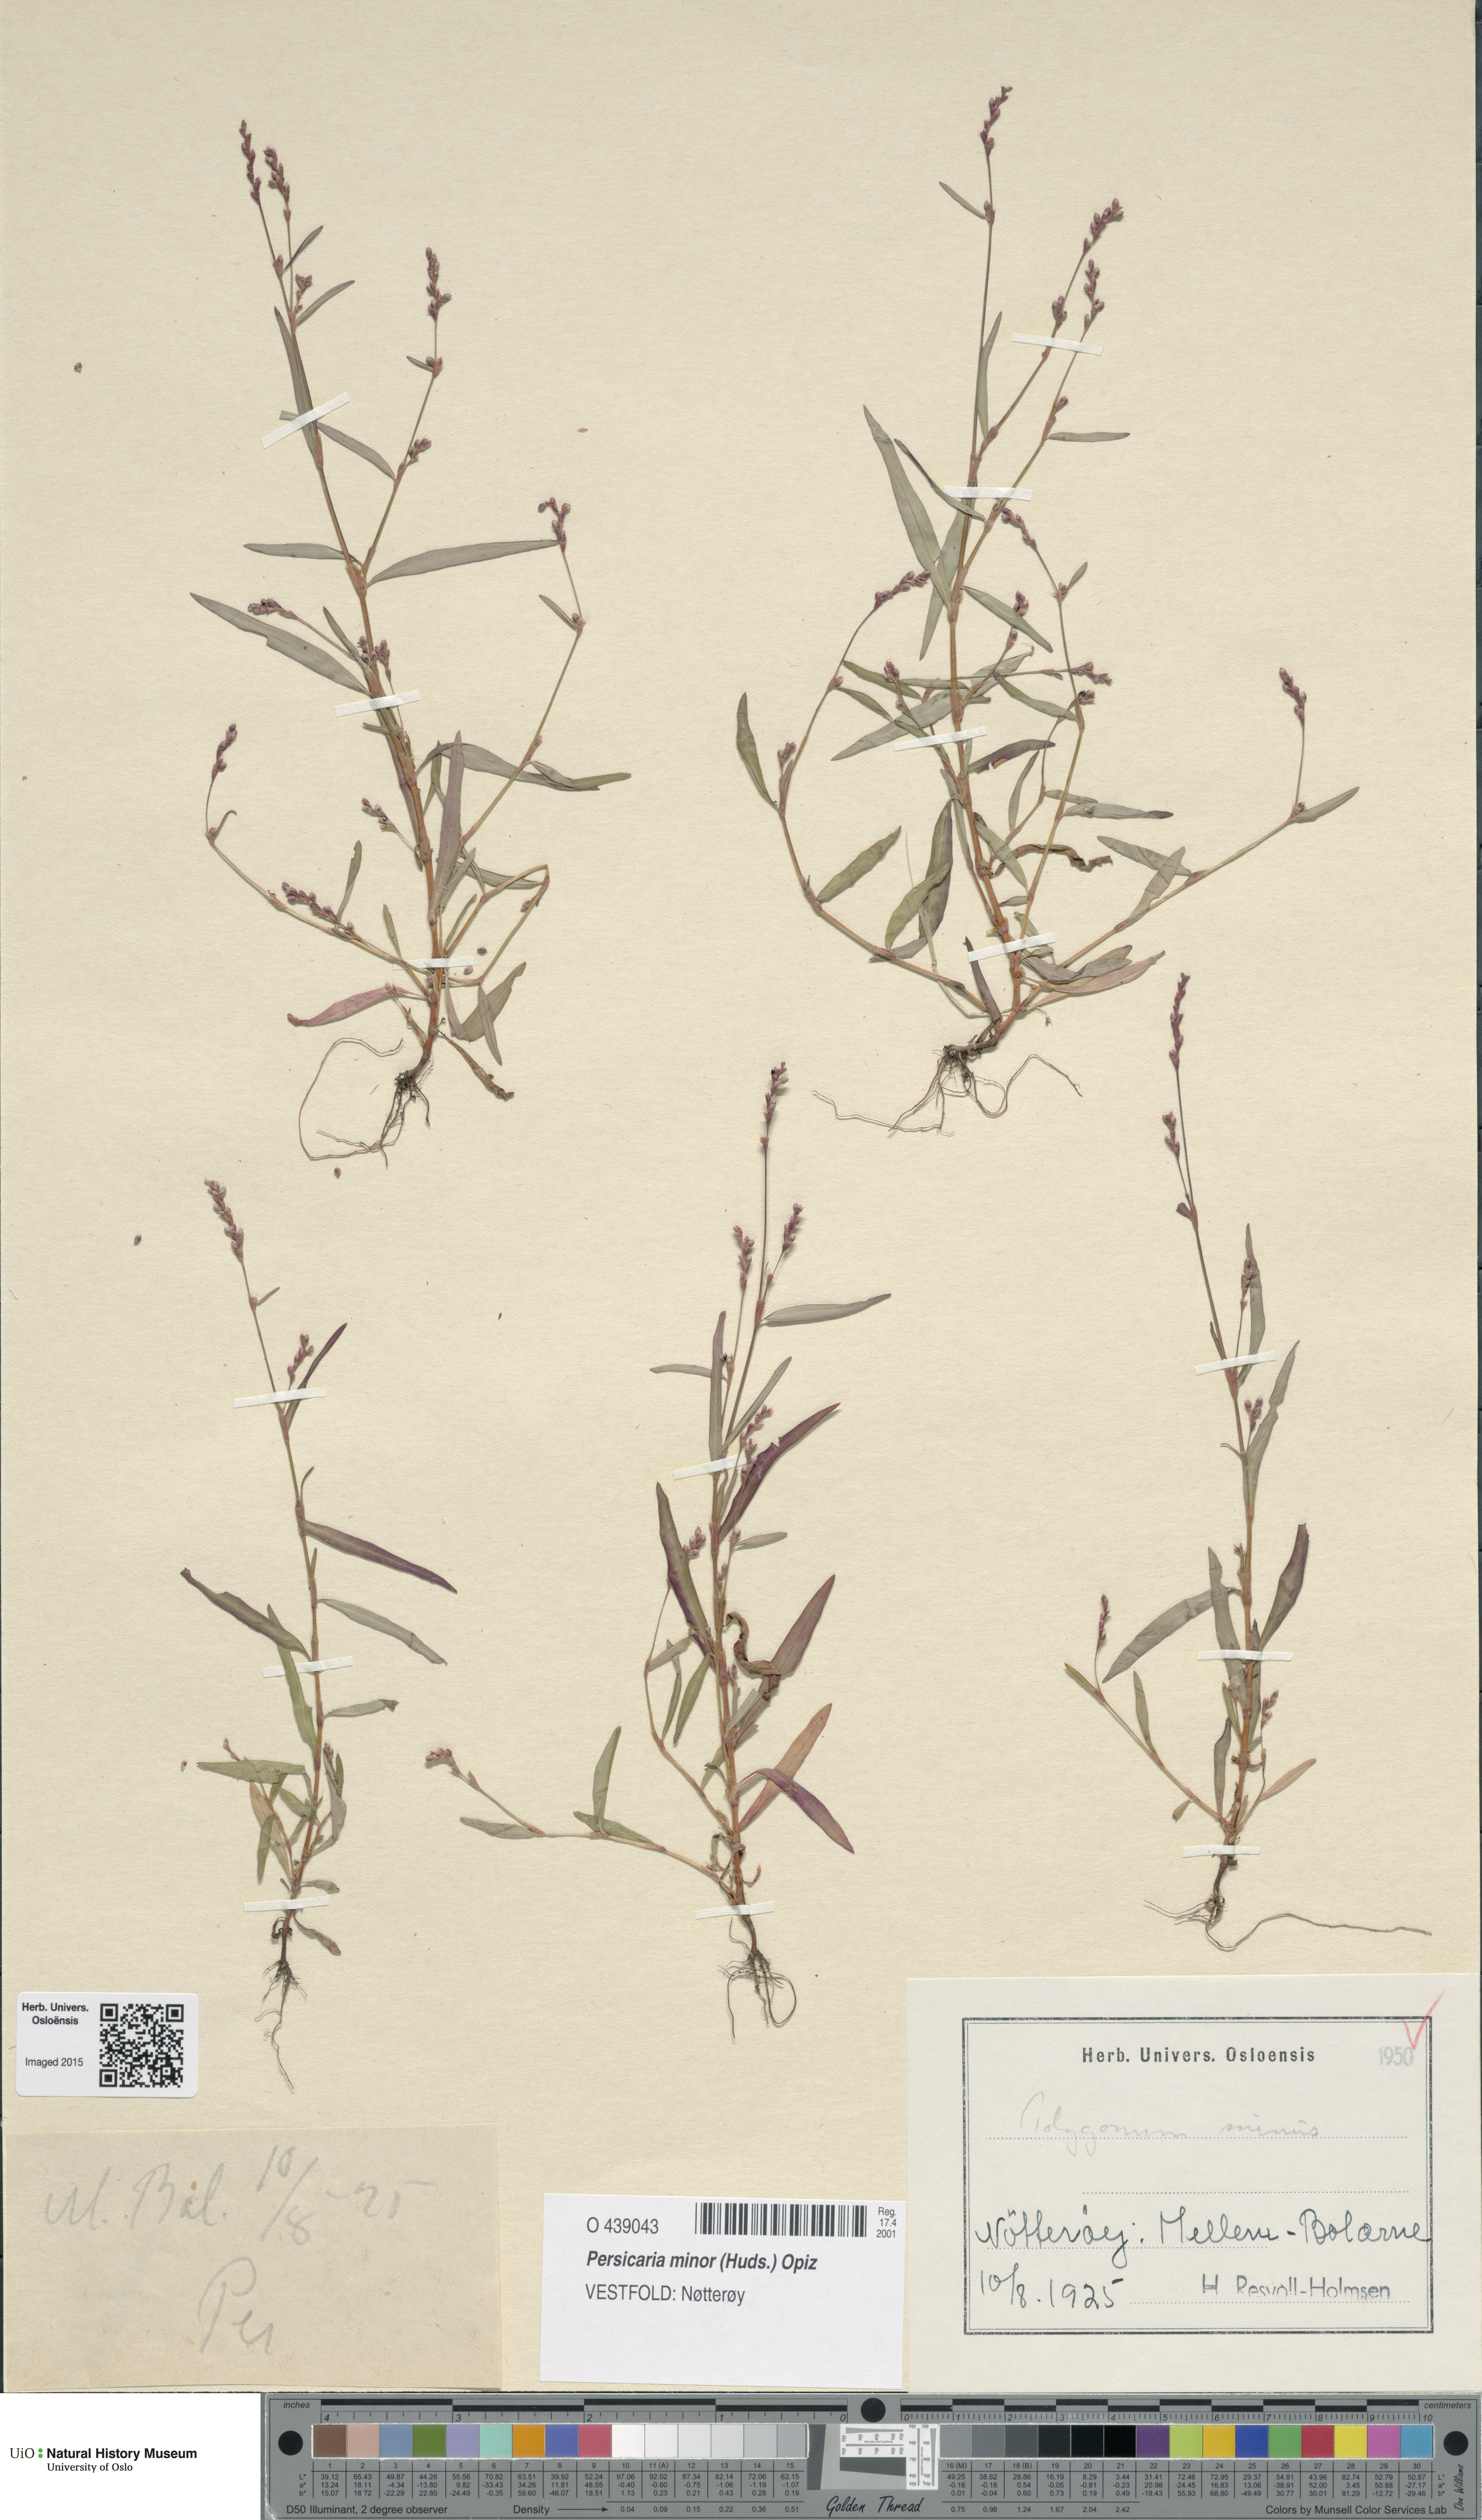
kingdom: Plantae
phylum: Tracheophyta
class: Magnoliopsida
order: Caryophyllales
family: Polygonaceae
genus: Persicaria
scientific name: Persicaria minor
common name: Small water-pepper
